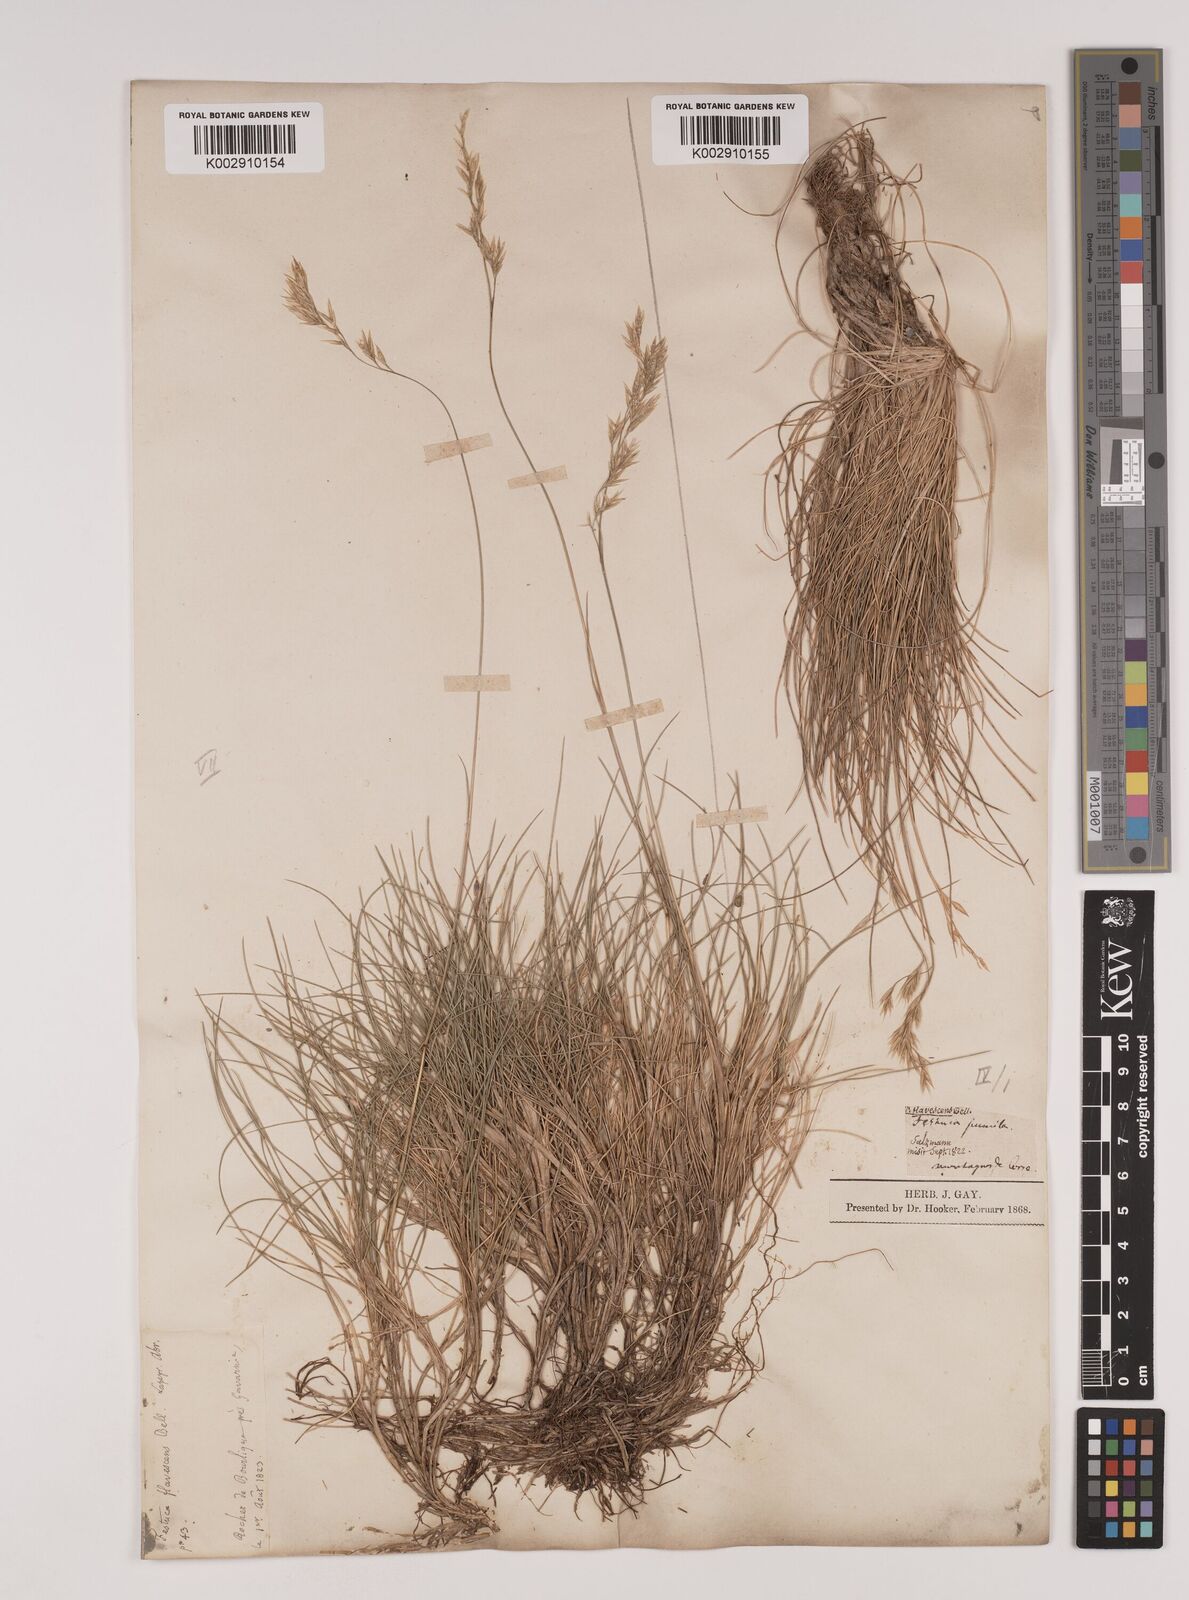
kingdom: Plantae
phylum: Tracheophyta
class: Liliopsida
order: Poales
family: Poaceae
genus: Festuca
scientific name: Festuca
